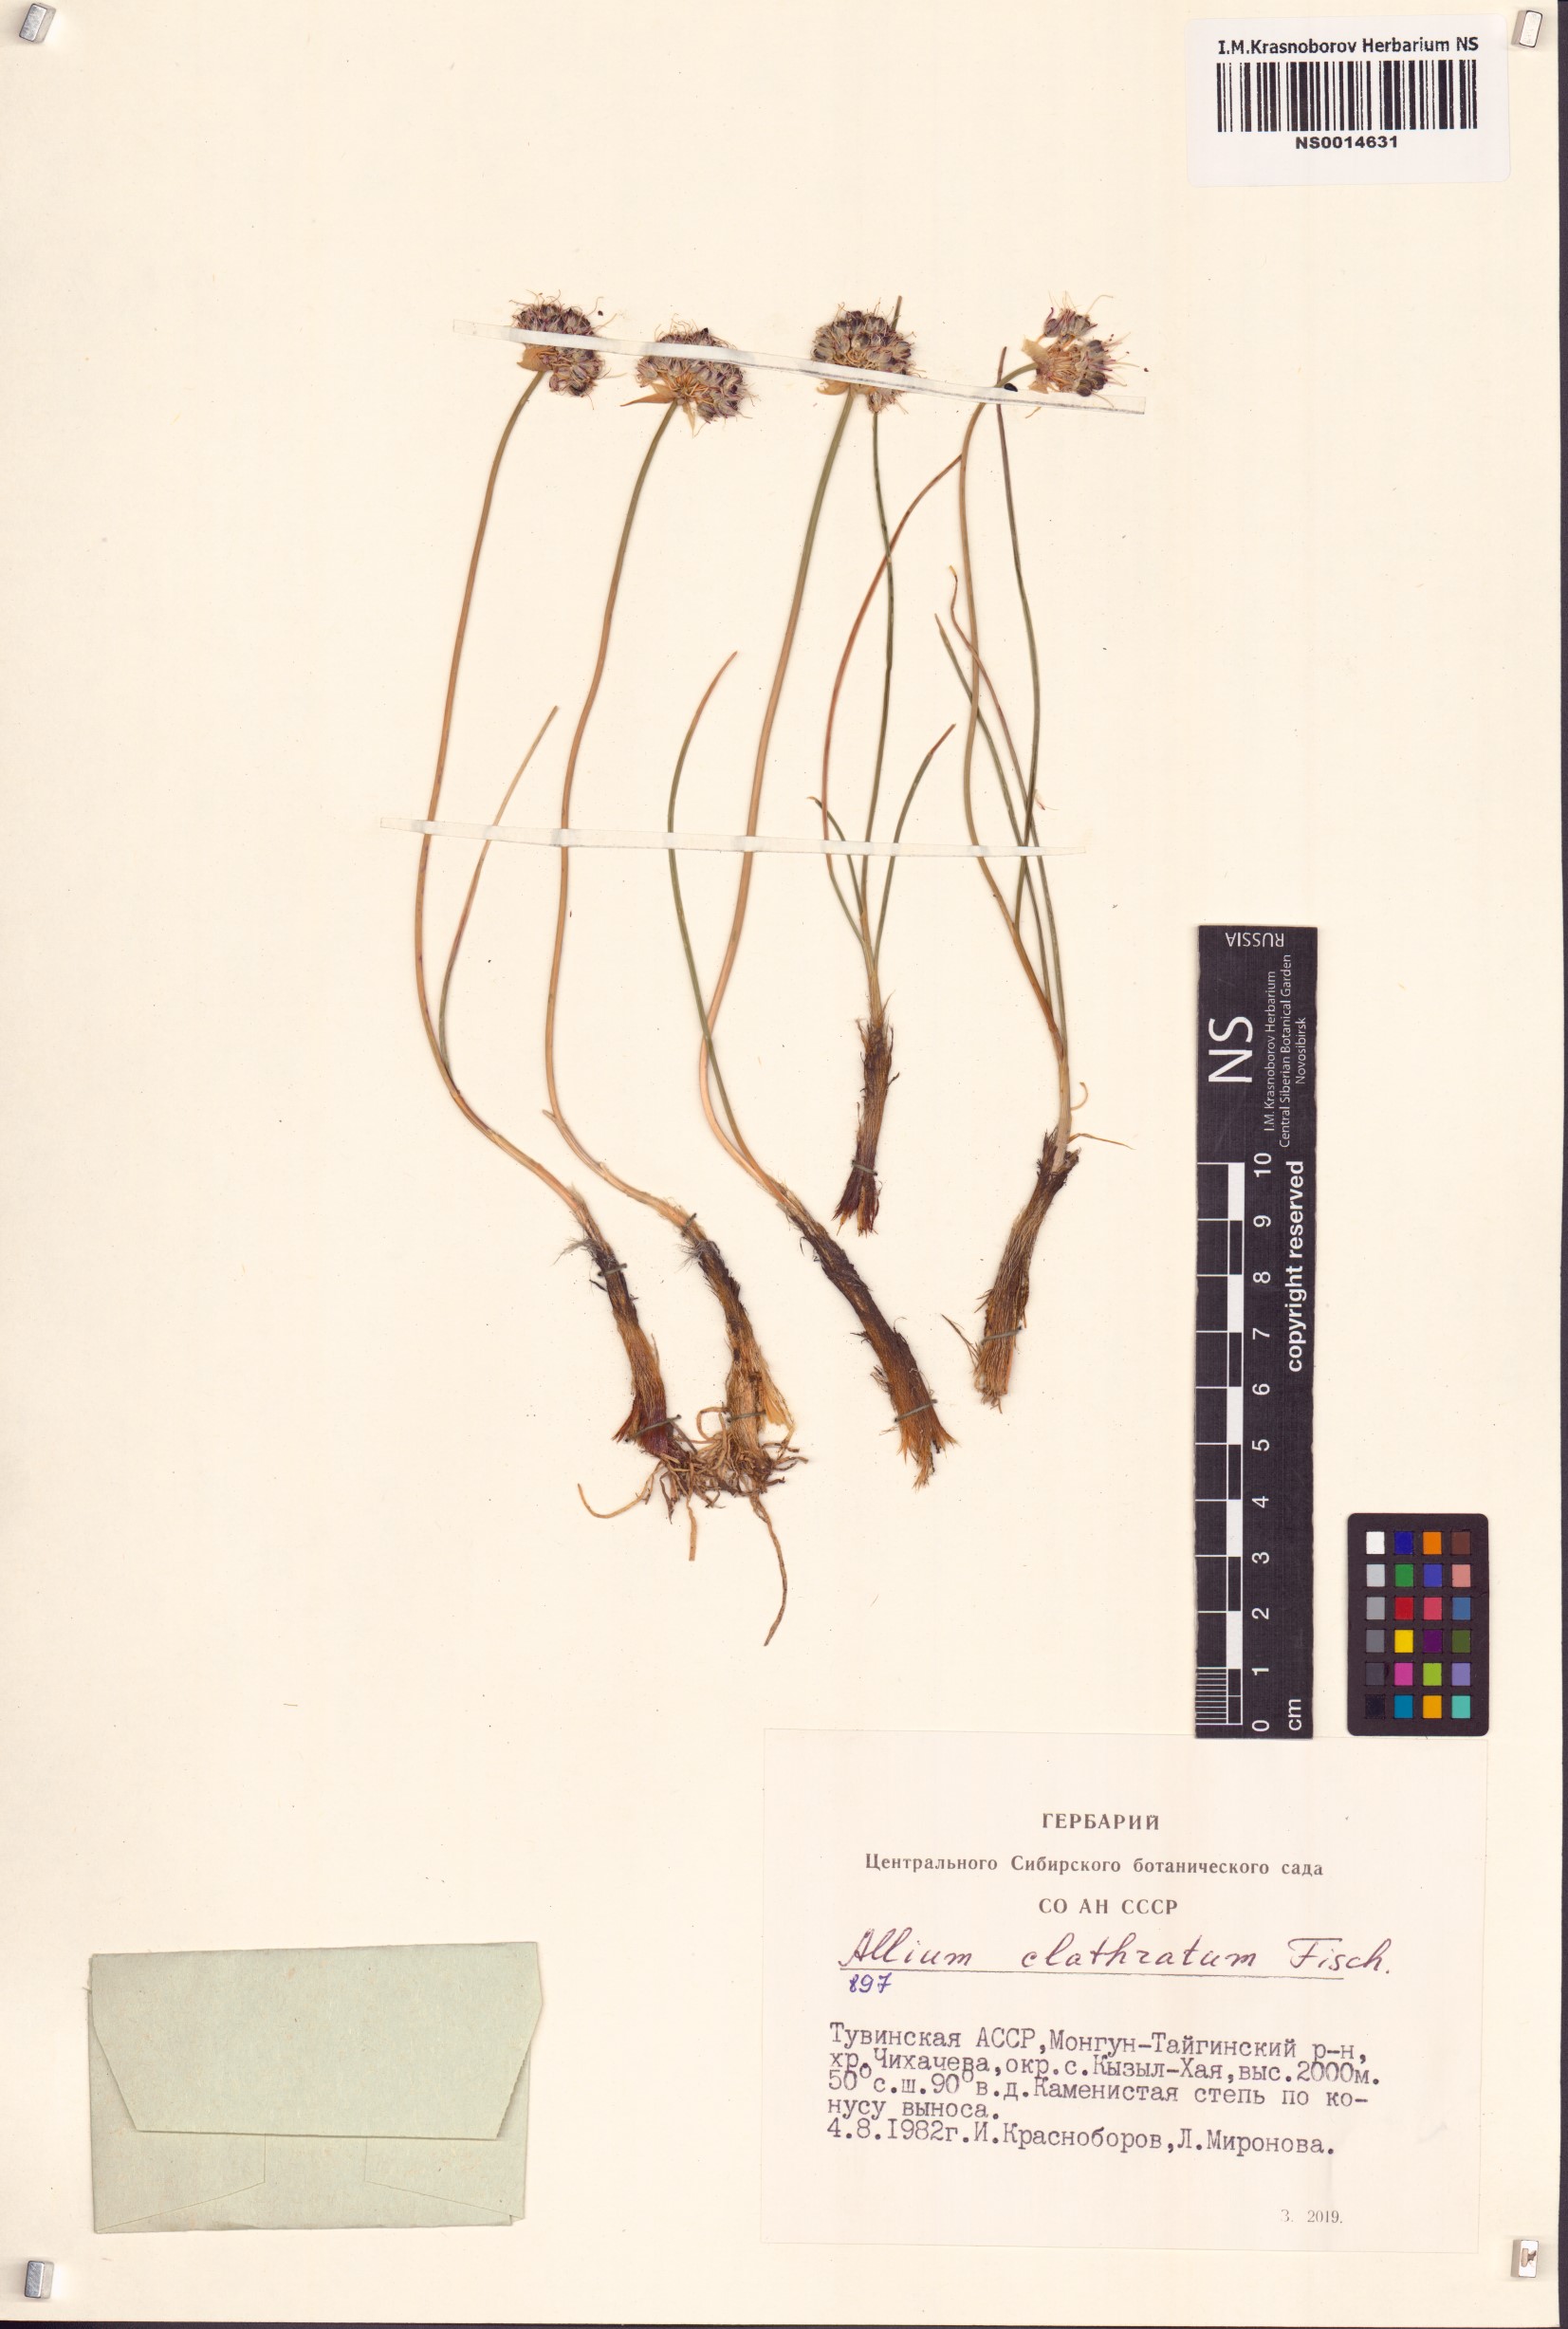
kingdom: Plantae
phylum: Tracheophyta
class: Liliopsida
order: Asparagales
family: Amaryllidaceae
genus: Allium
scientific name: Allium clathratum
